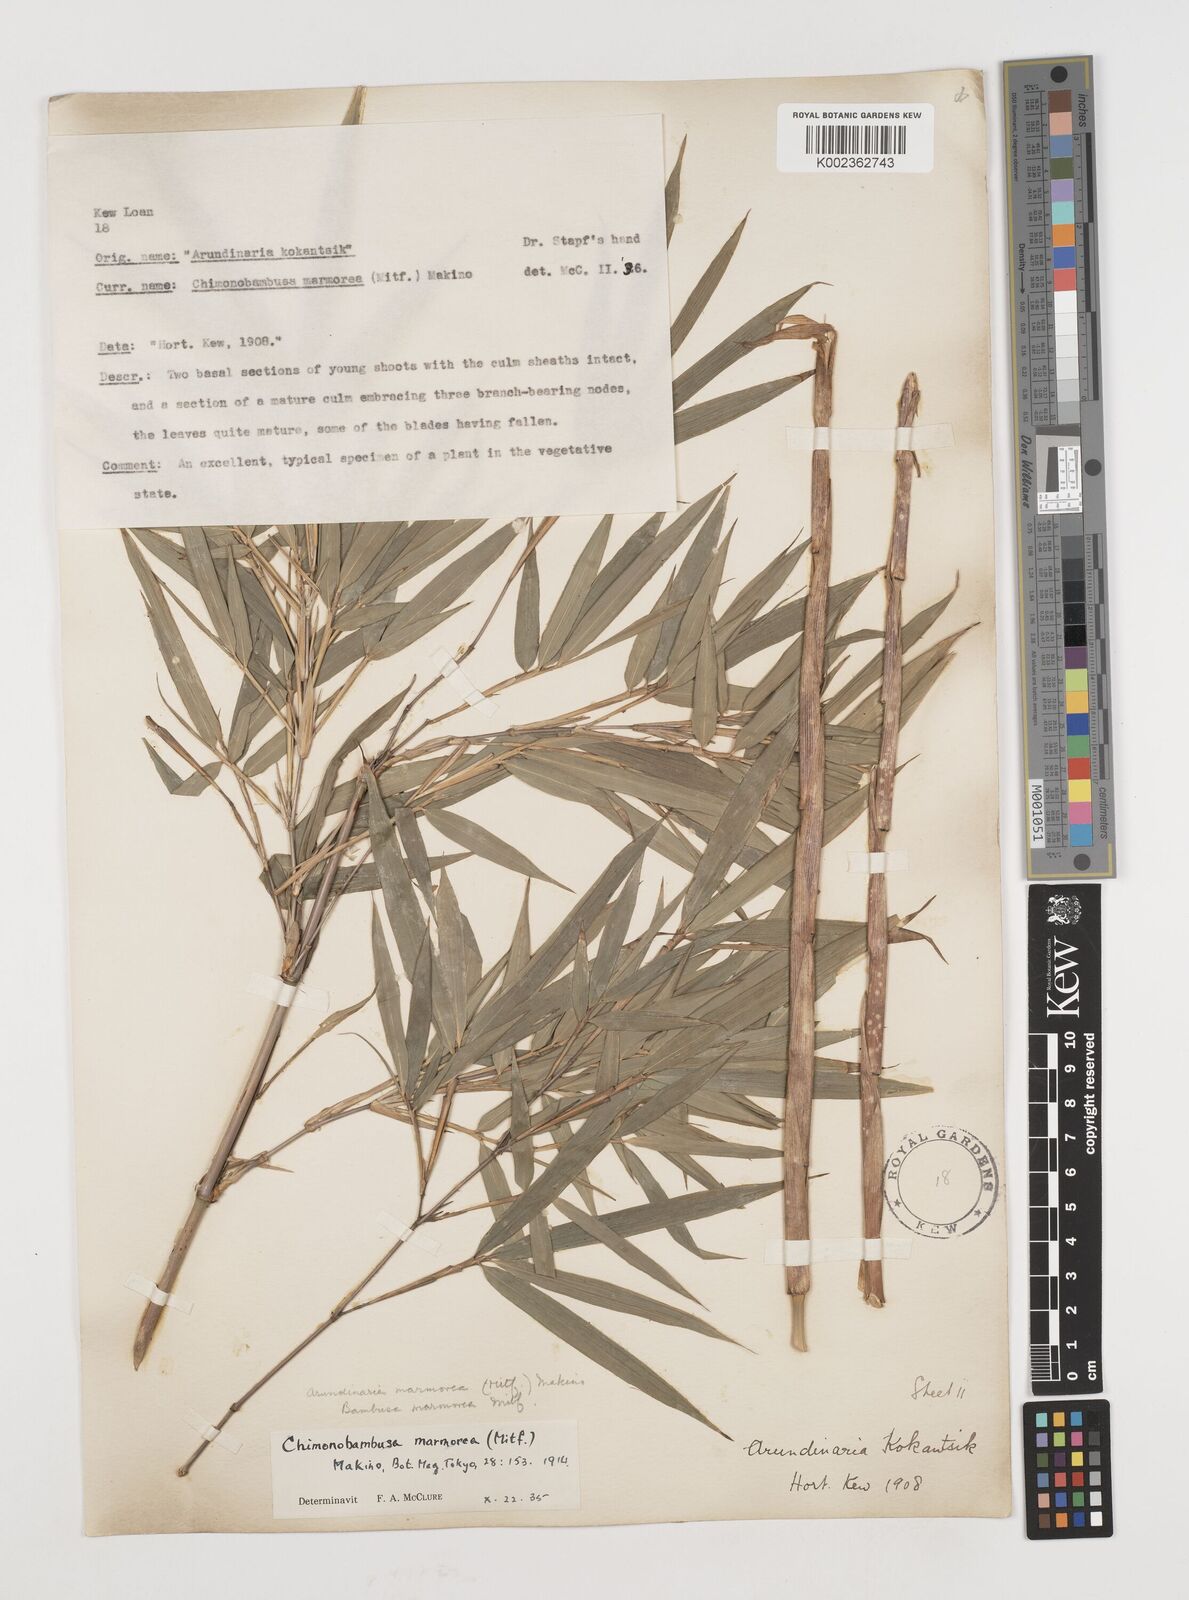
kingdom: Plantae
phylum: Tracheophyta
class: Liliopsida
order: Poales
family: Poaceae
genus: Chimonobambusa
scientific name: Chimonobambusa marmorea
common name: Marbled bamboo
